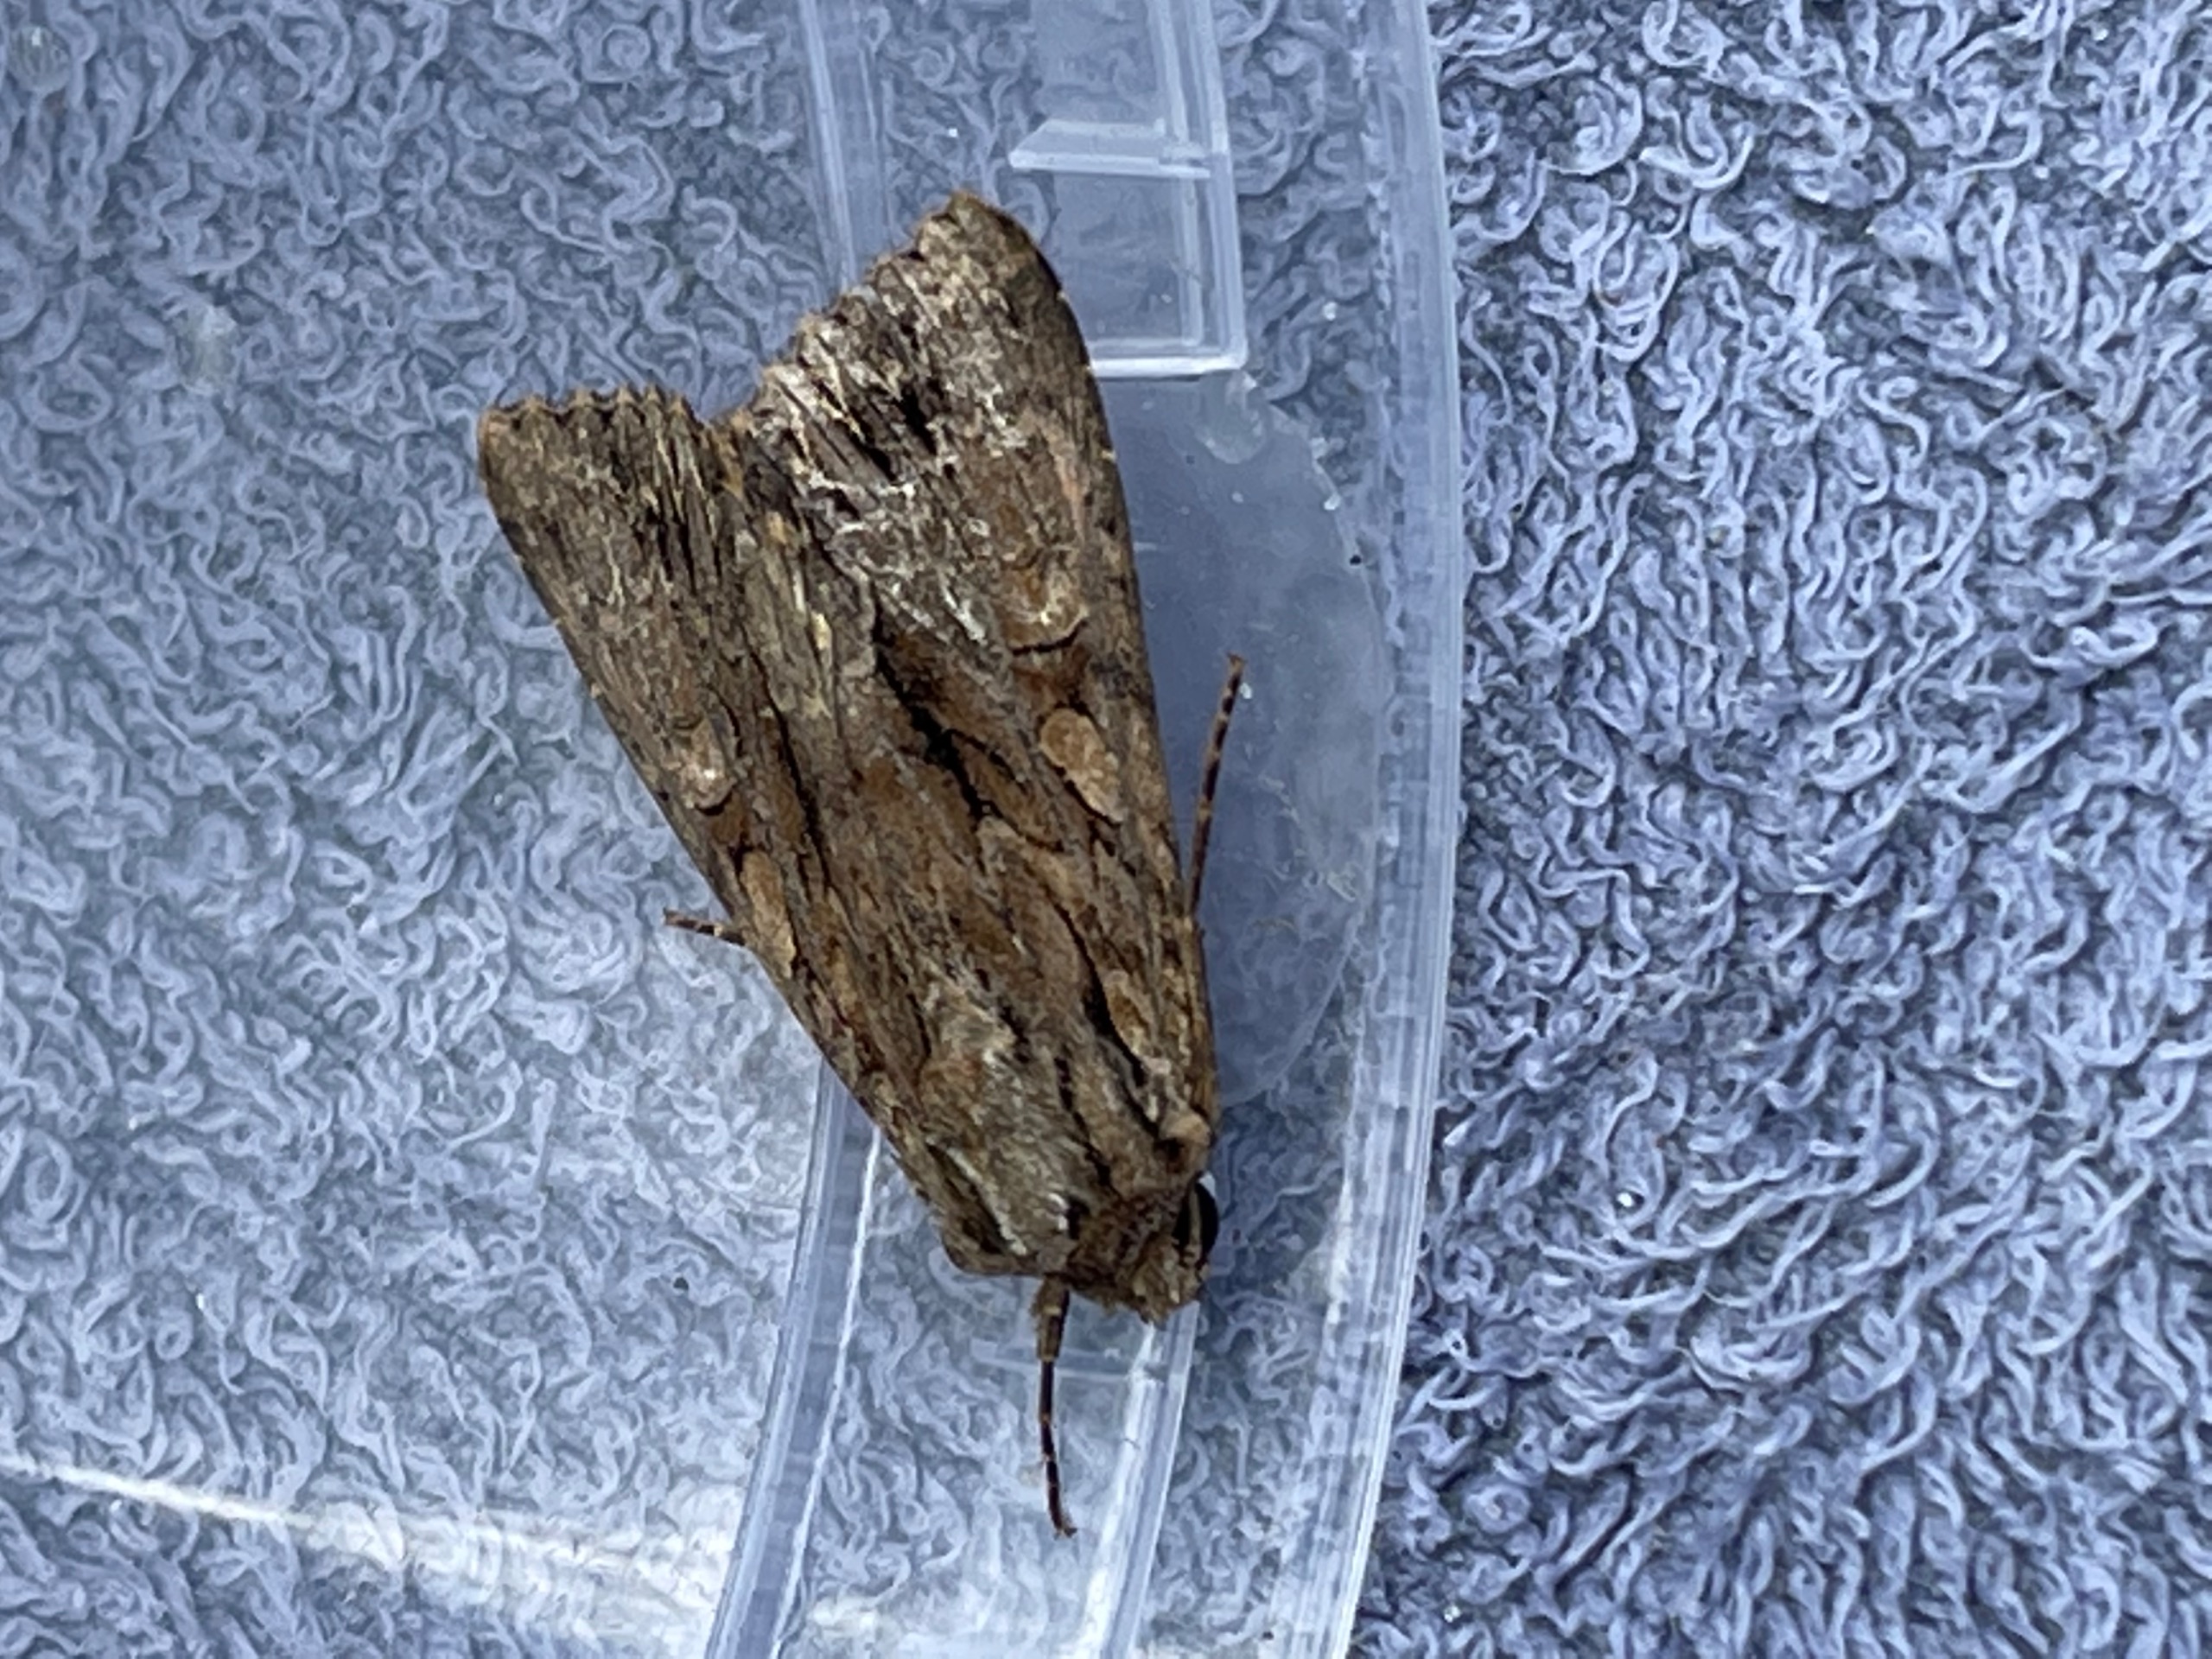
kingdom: Animalia
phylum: Arthropoda
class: Insecta
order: Lepidoptera
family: Noctuidae
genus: Apamea
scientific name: Apamea monoglypha
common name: Jordugle
